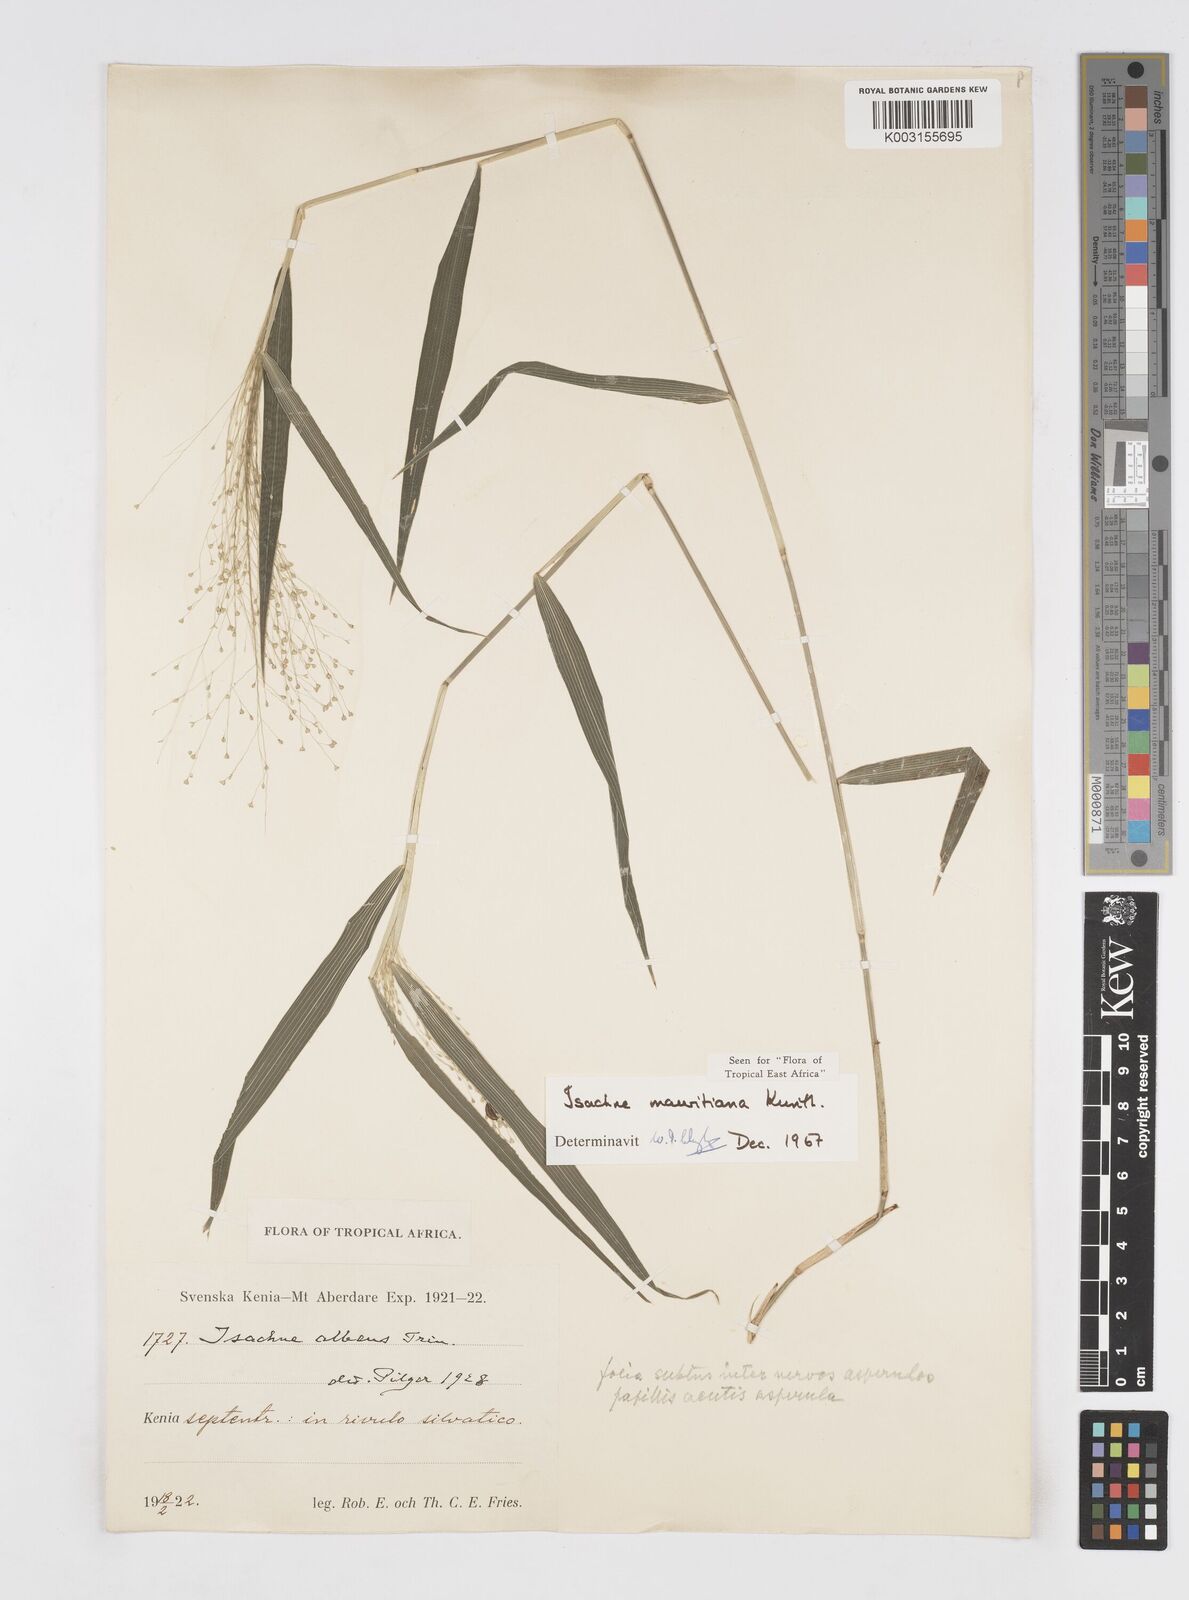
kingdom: Plantae
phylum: Tracheophyta
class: Liliopsida
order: Poales
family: Poaceae
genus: Isachne
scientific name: Isachne mauritiana
